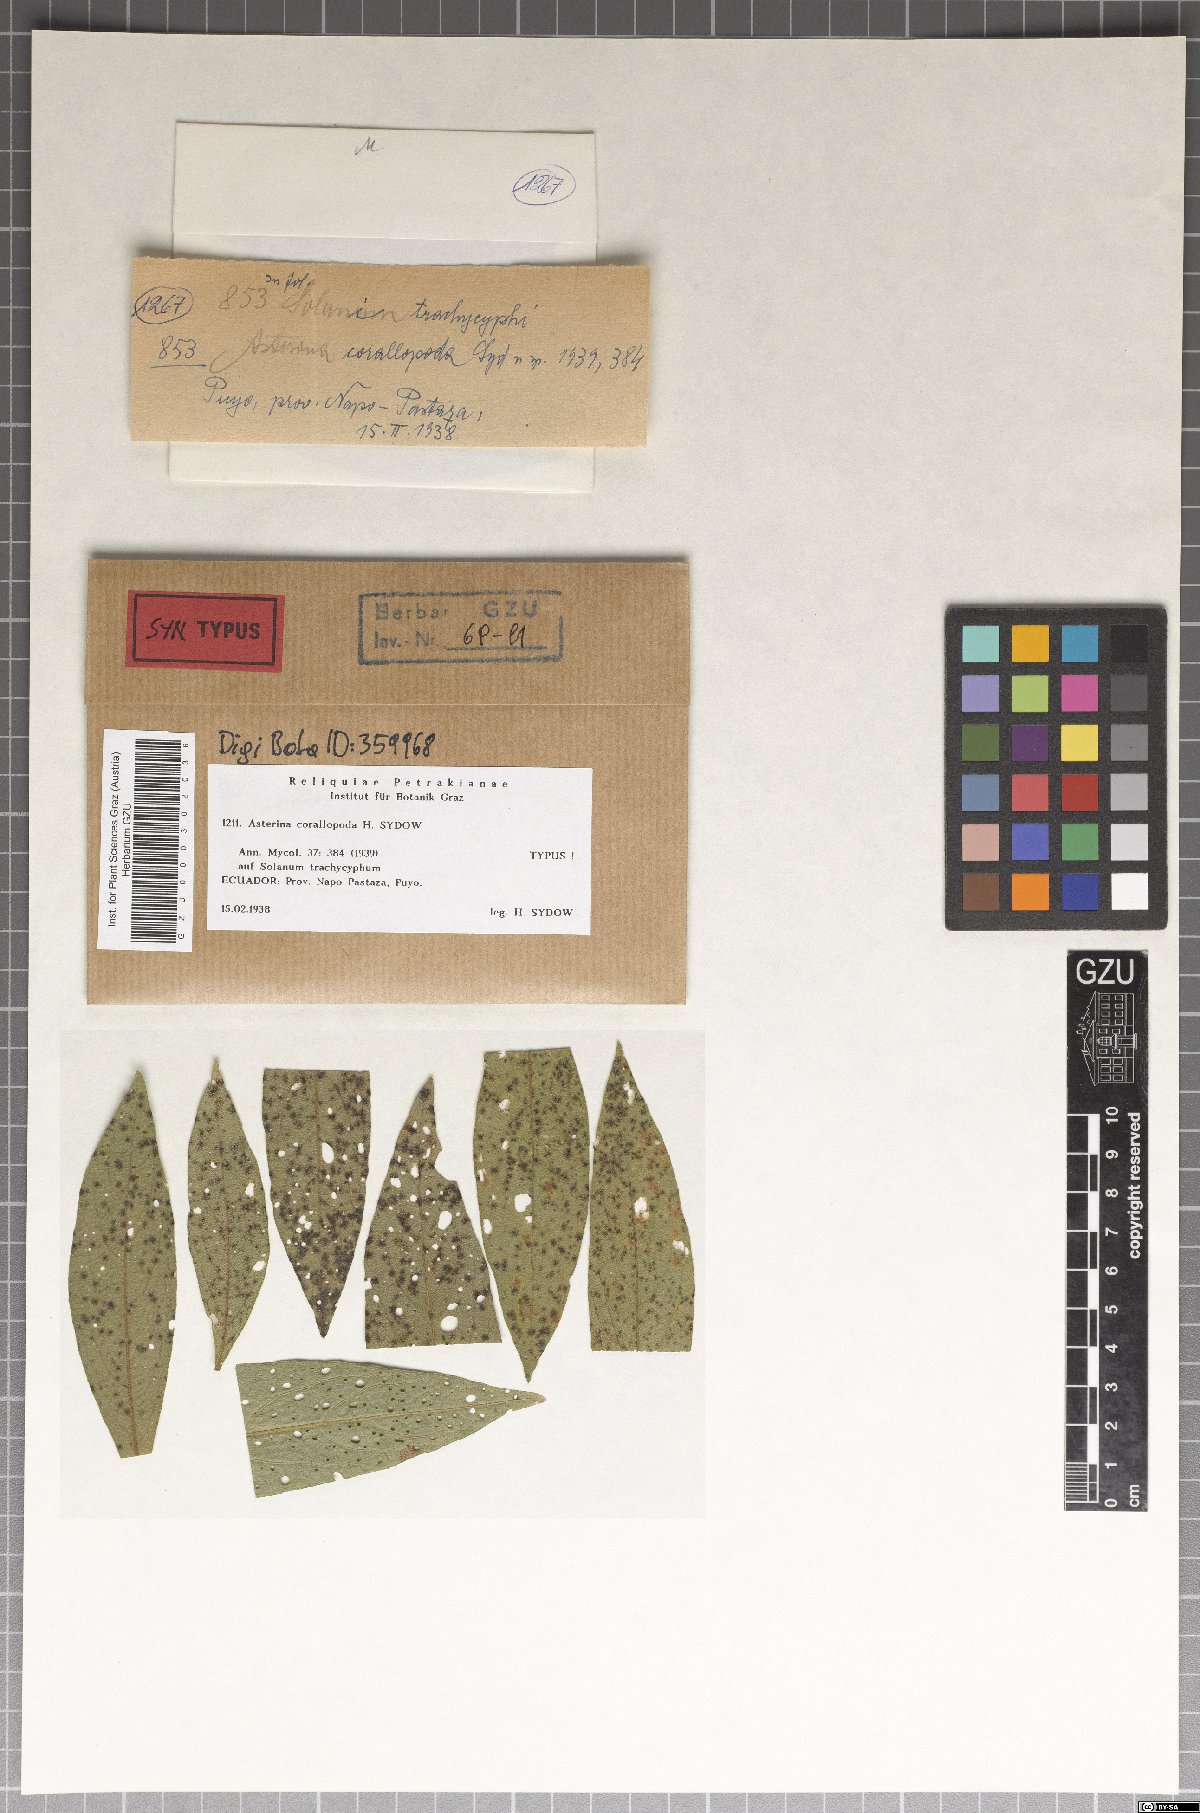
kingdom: Fungi
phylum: Ascomycota
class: Dothideomycetes
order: Asterinales
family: Asterinaceae
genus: Asterina
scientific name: Asterina corallopoda
